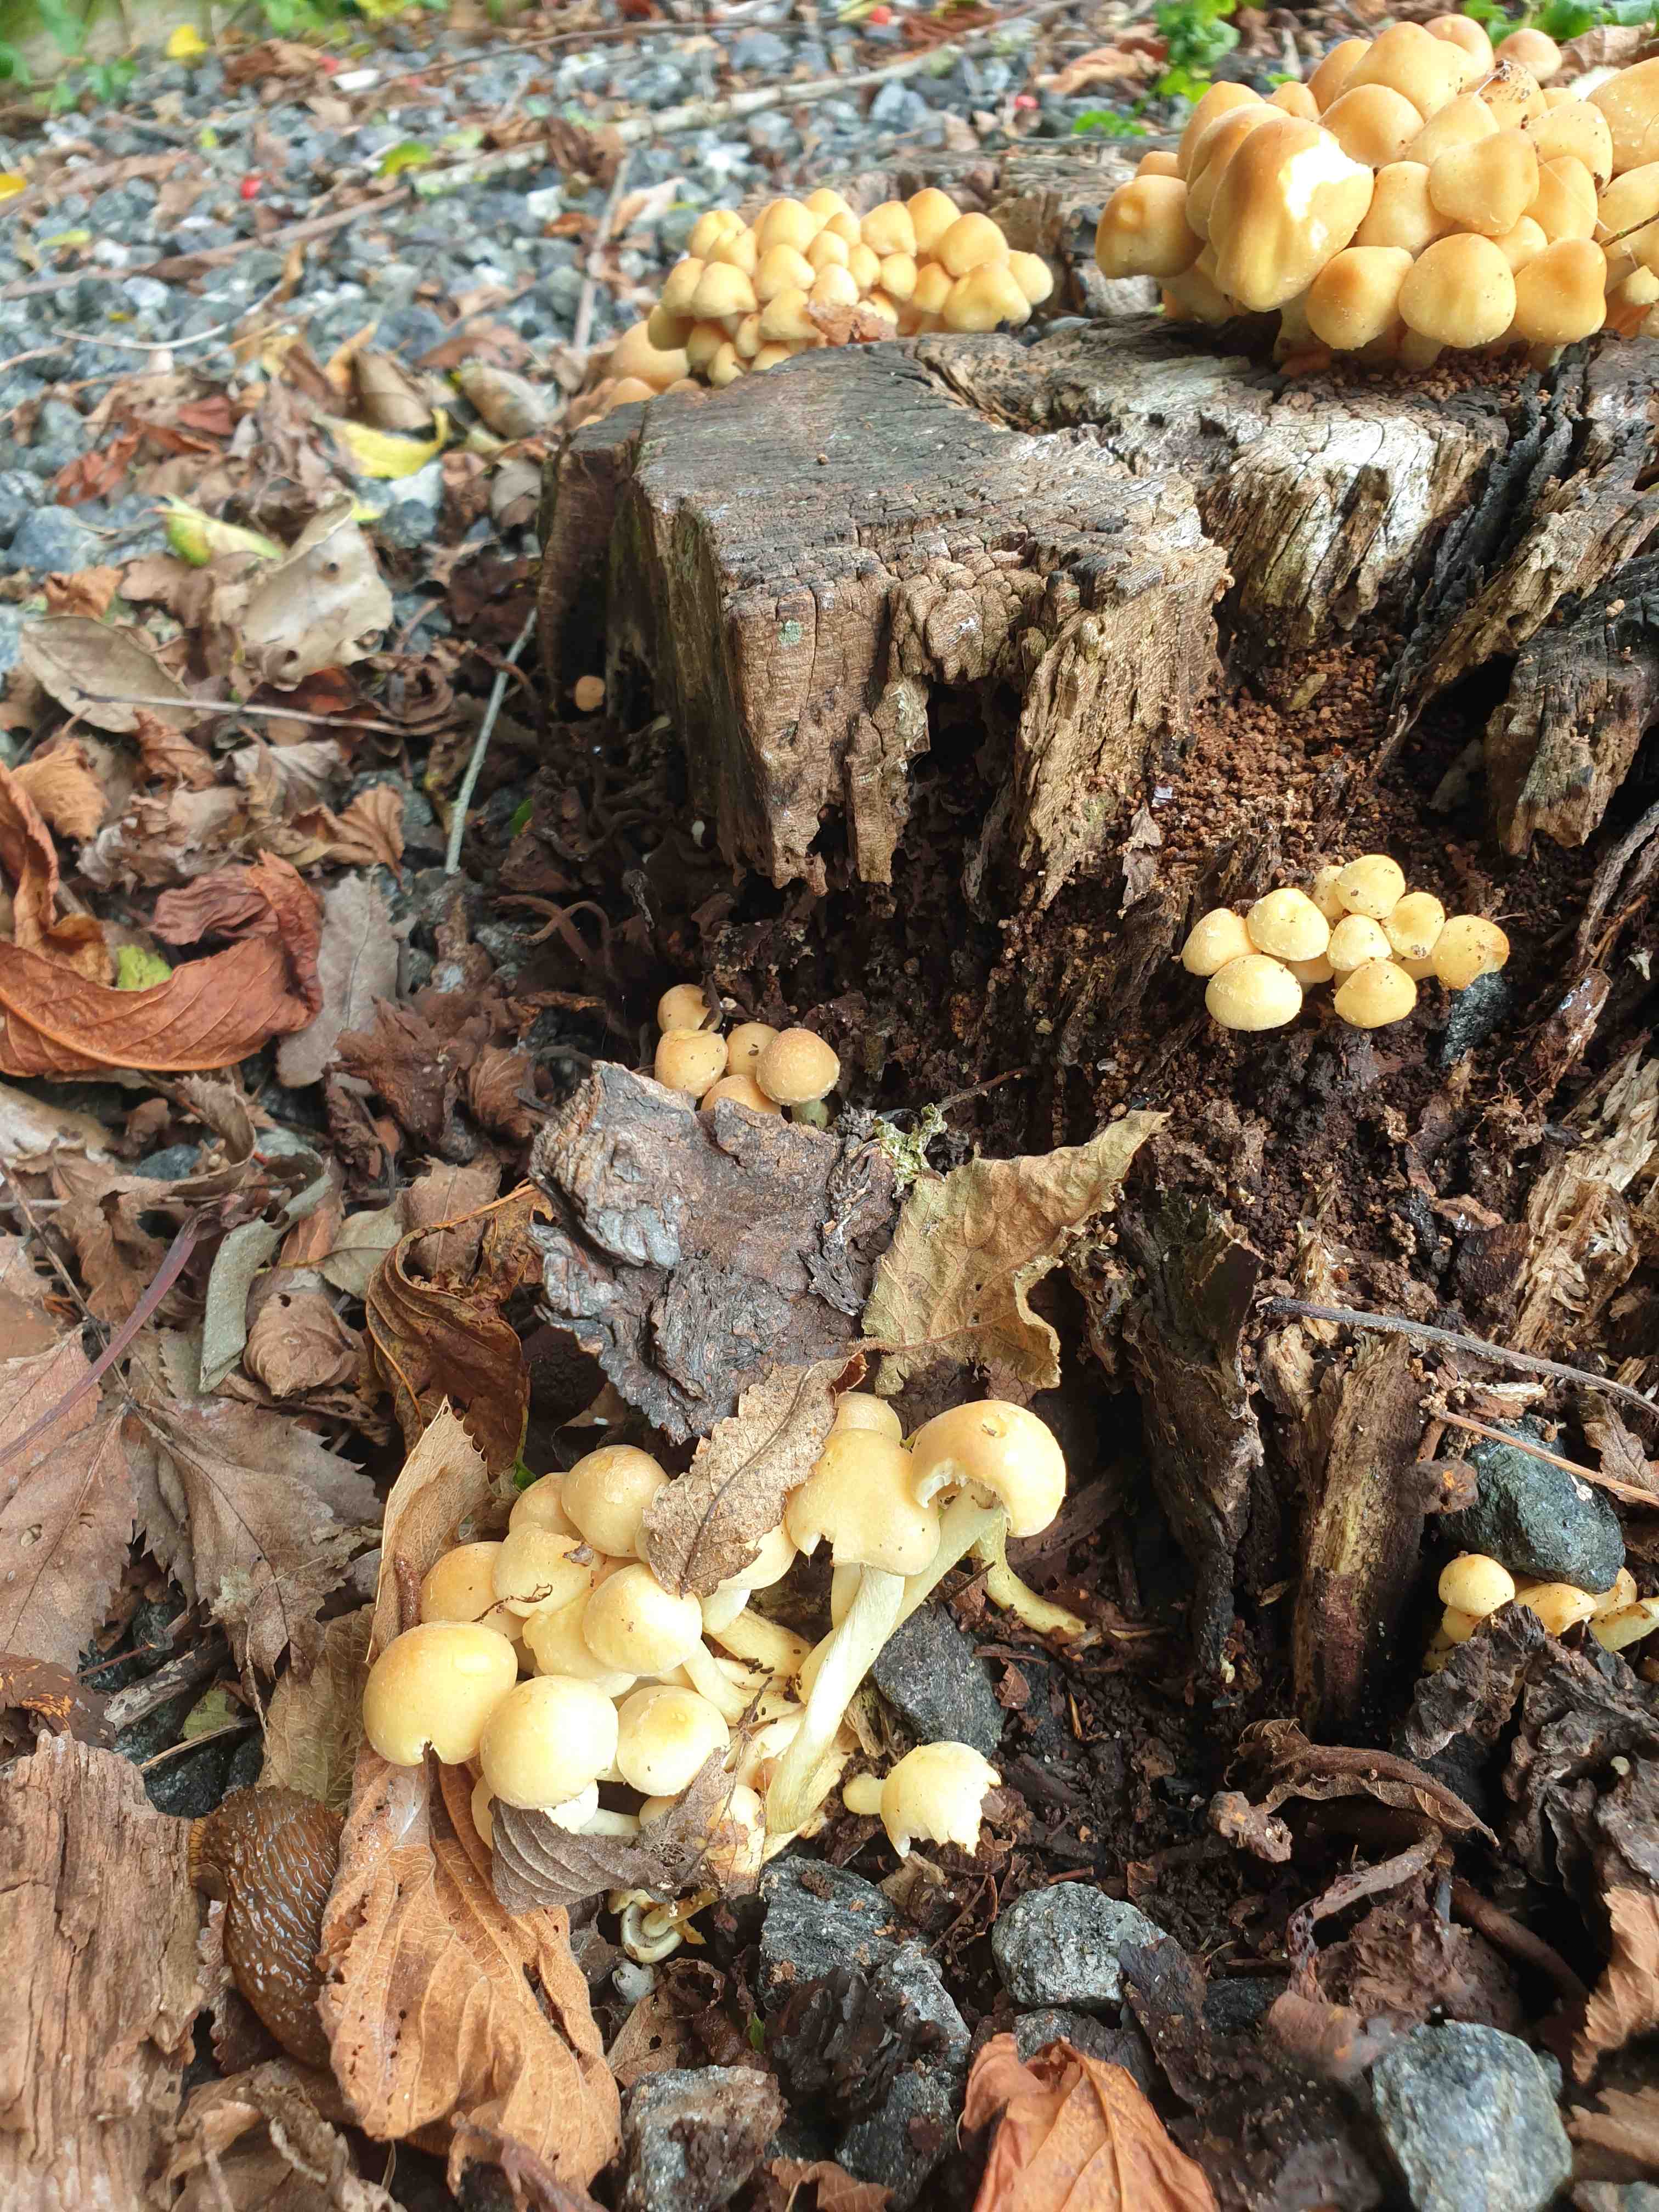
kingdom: Fungi
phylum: Basidiomycota
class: Agaricomycetes
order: Agaricales
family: Strophariaceae
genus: Hypholoma
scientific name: Hypholoma fasciculare
